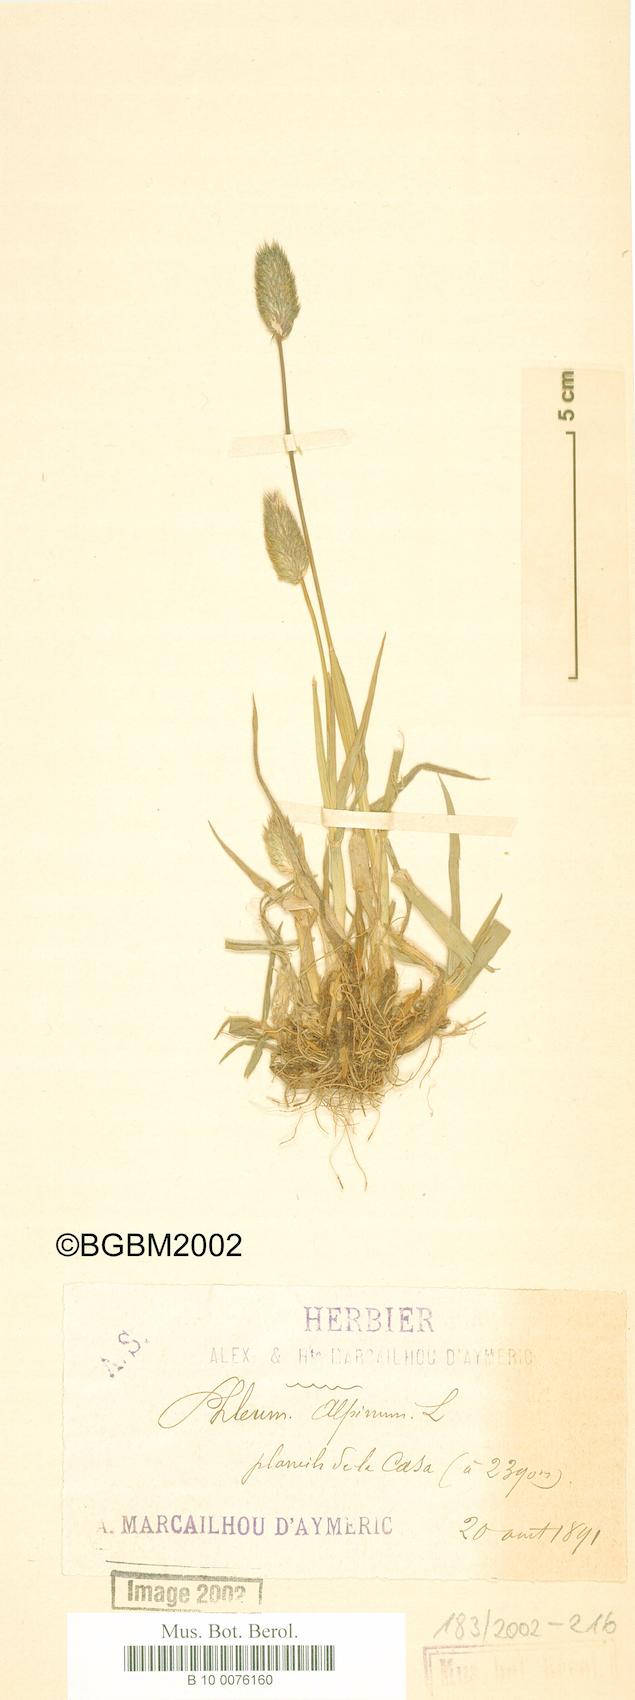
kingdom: Plantae
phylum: Tracheophyta
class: Liliopsida
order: Poales
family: Poaceae
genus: Phleum
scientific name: Phleum alpinum
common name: Alpine cat's-tail
